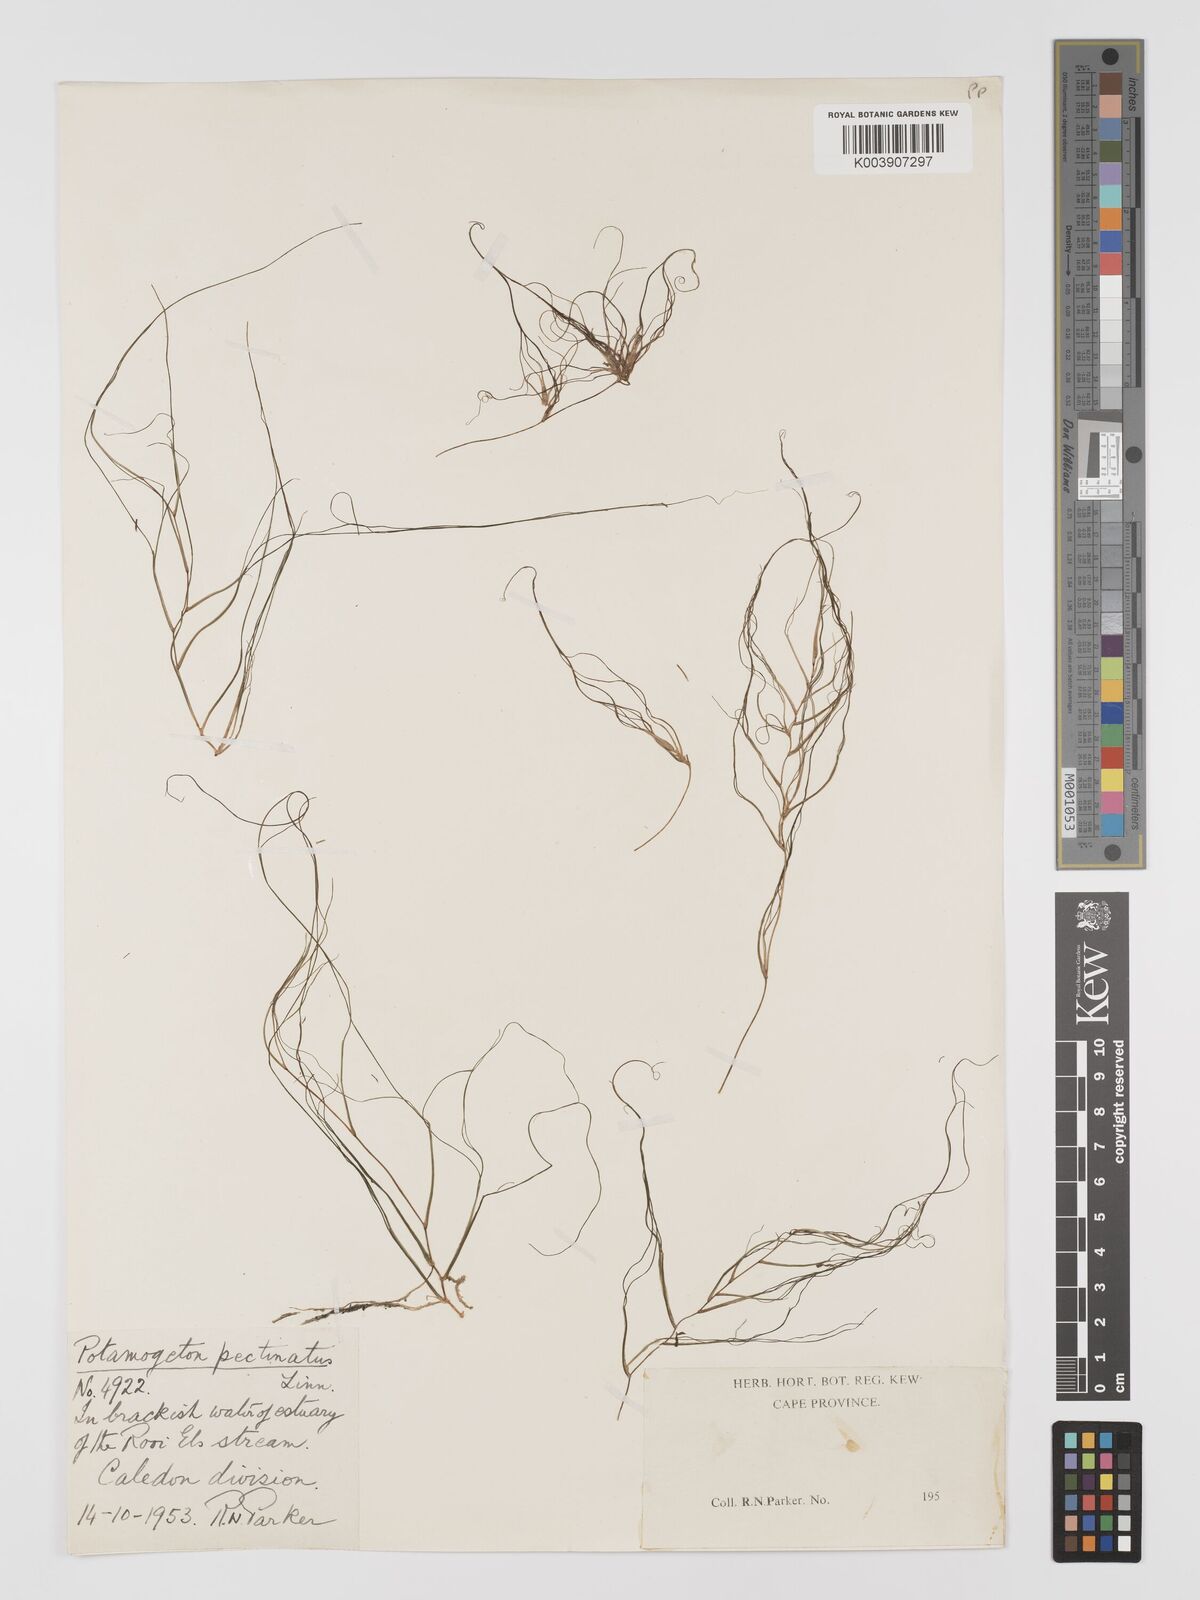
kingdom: Plantae
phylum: Tracheophyta
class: Liliopsida
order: Alismatales
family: Potamogetonaceae
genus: Stuckenia
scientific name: Stuckenia pectinata
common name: Sago pondweed
